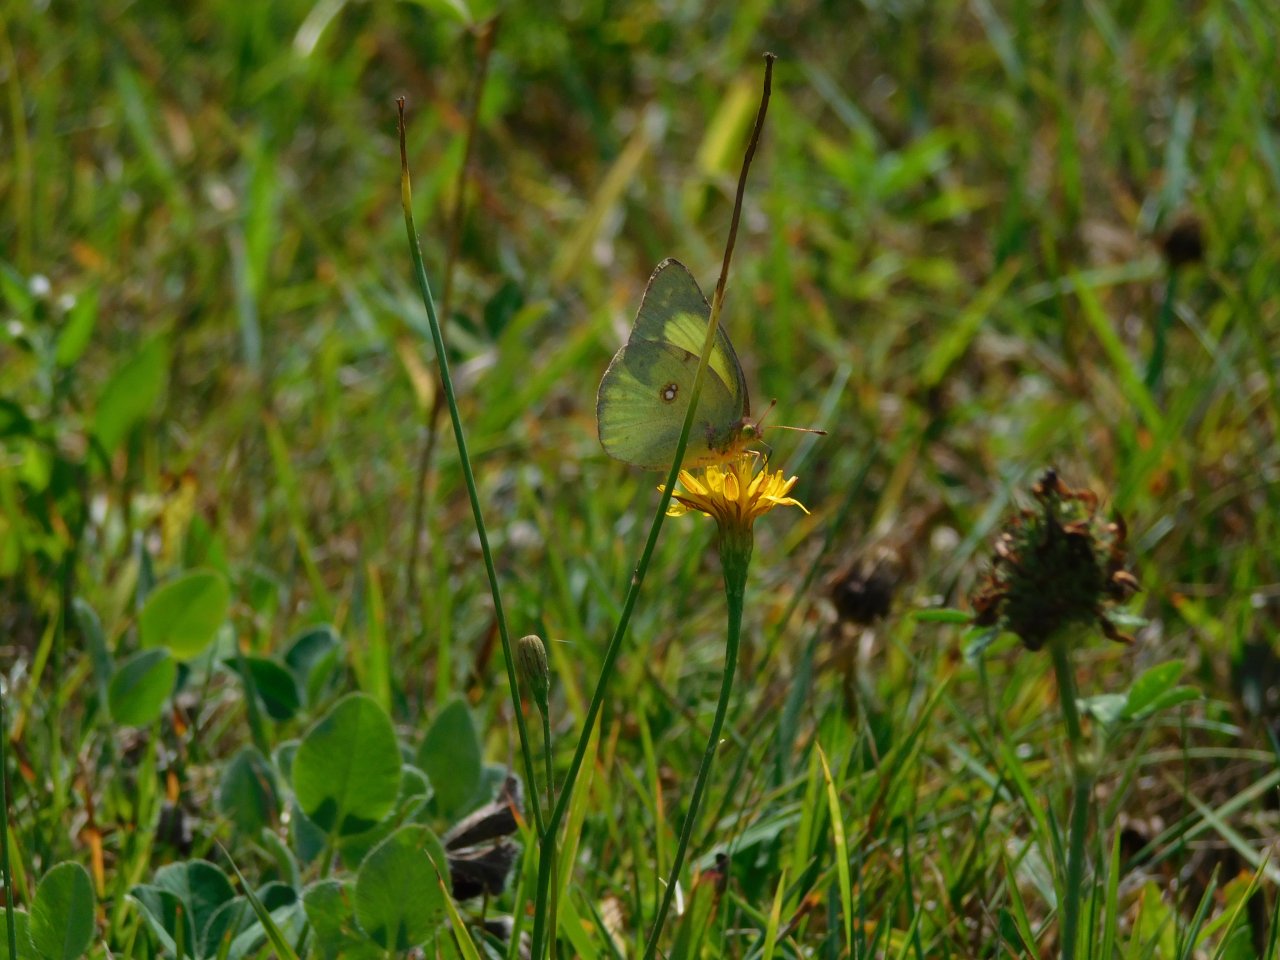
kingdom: Animalia
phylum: Arthropoda
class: Insecta
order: Lepidoptera
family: Pieridae
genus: Colias
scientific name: Colias philodice
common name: Clouded Sulphur
